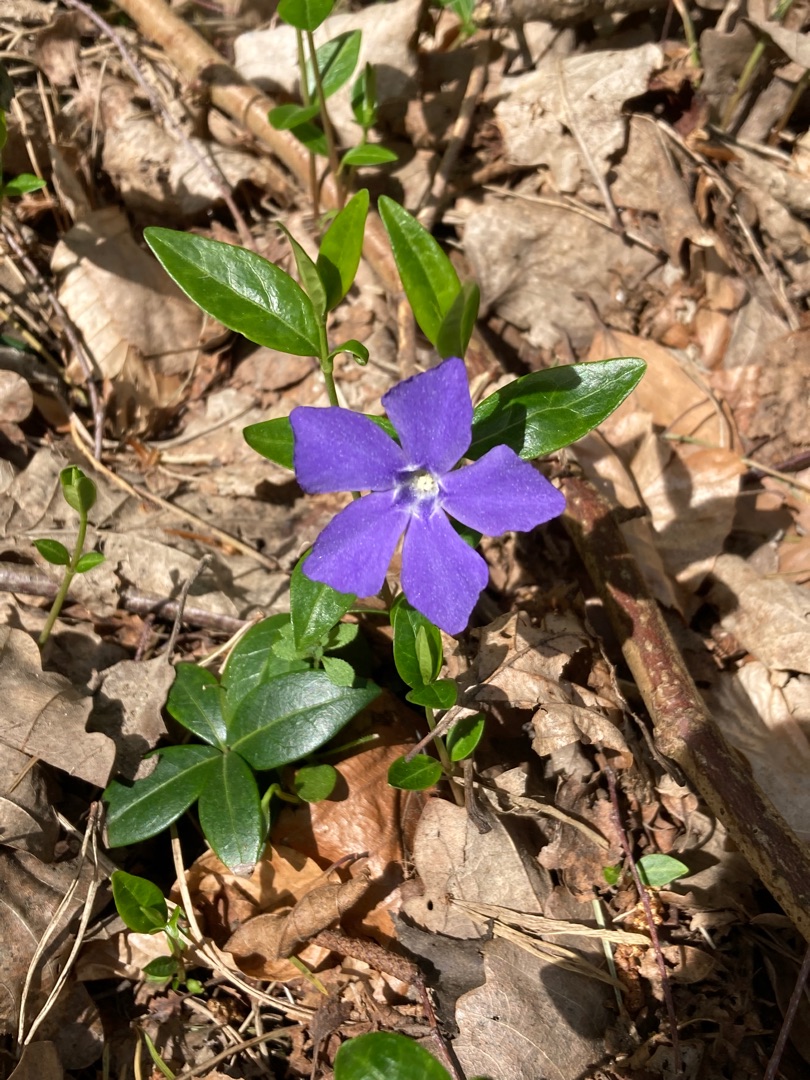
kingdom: Plantae
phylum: Tracheophyta
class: Magnoliopsida
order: Gentianales
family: Apocynaceae
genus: Vinca
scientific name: Vinca minor
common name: Liden singrøn
